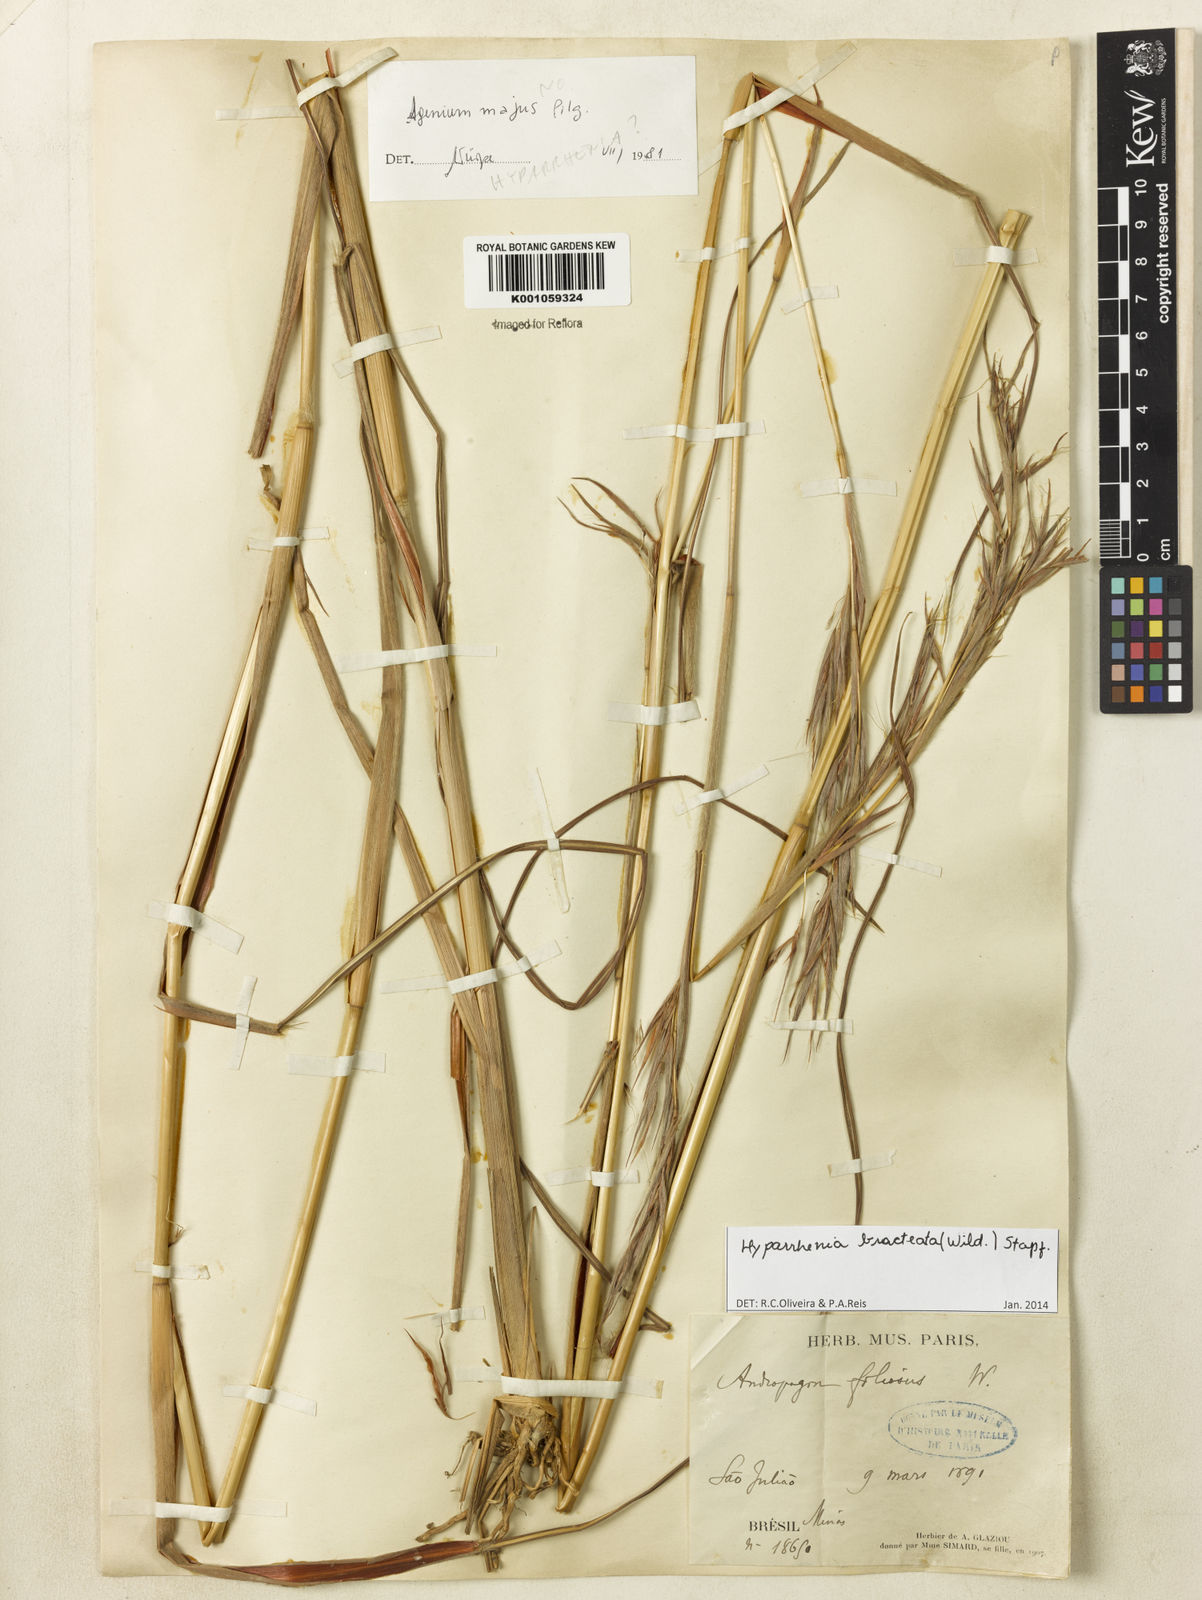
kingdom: Plantae
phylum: Tracheophyta
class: Liliopsida
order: Poales
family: Poaceae
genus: Hyparrhenia
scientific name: Hyparrhenia bracteata
